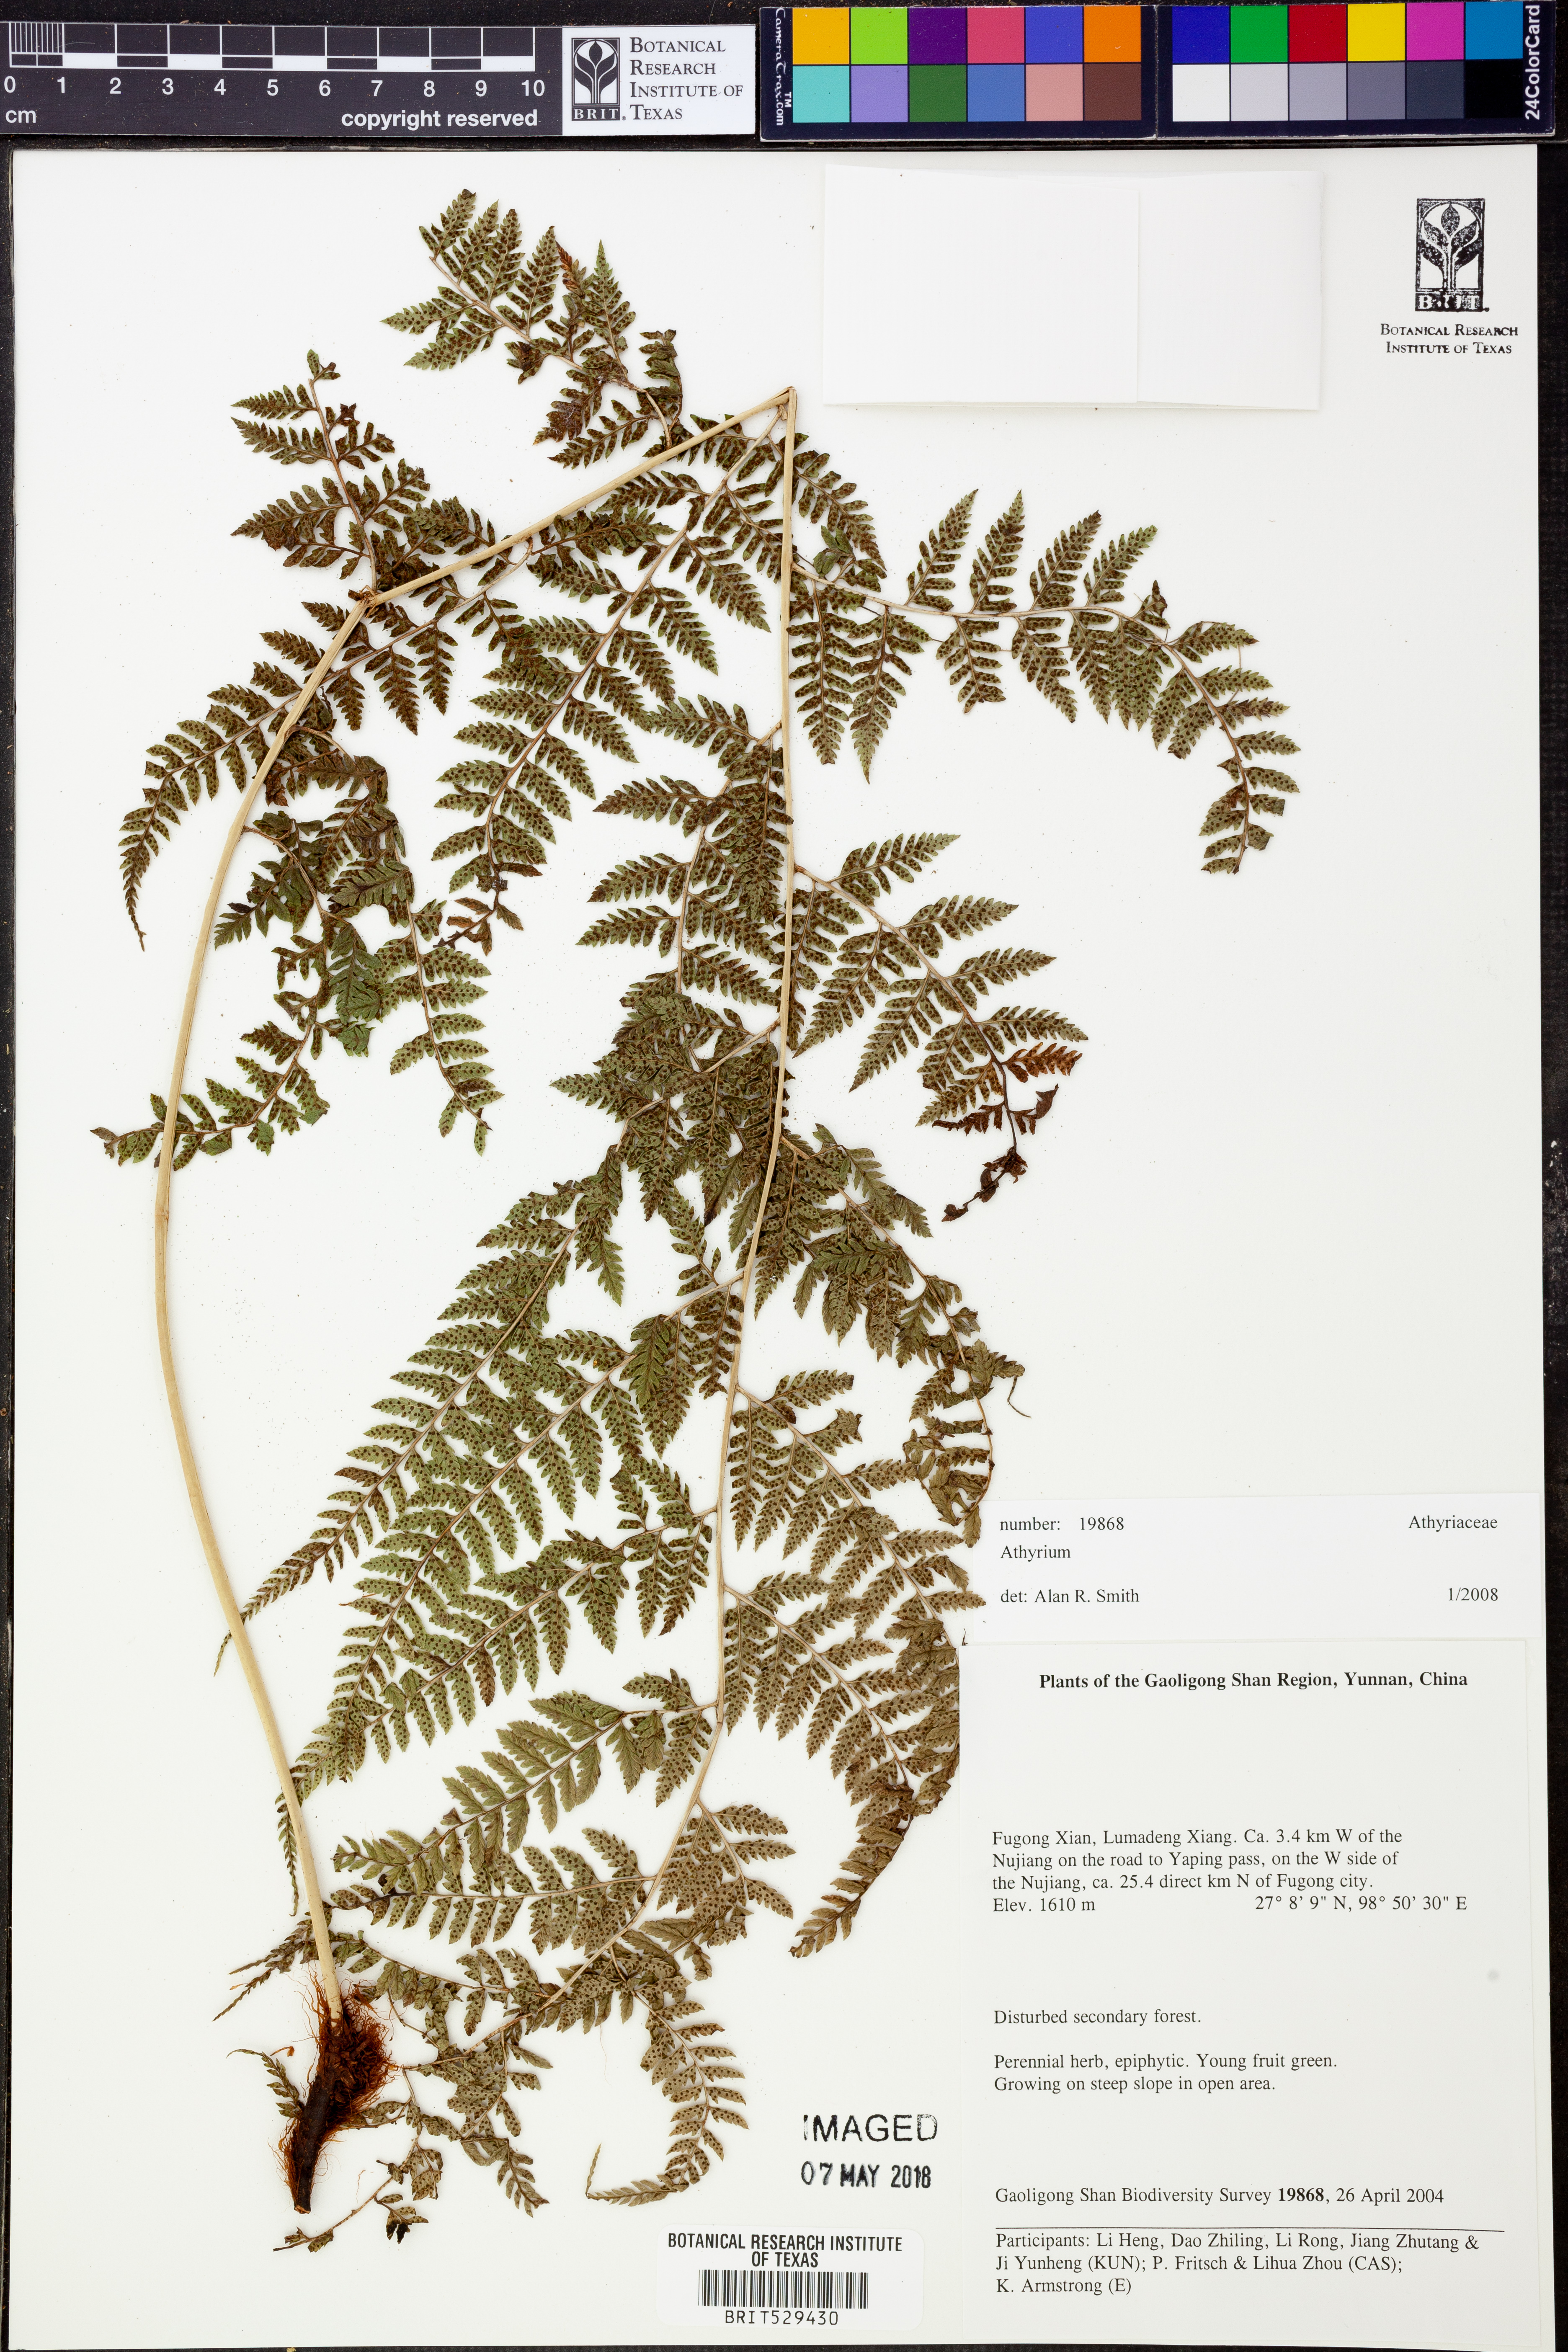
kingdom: Plantae
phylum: Tracheophyta
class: Polypodiopsida
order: Polypodiales
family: Athyriaceae
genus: Athyrium
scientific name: Athyrium
